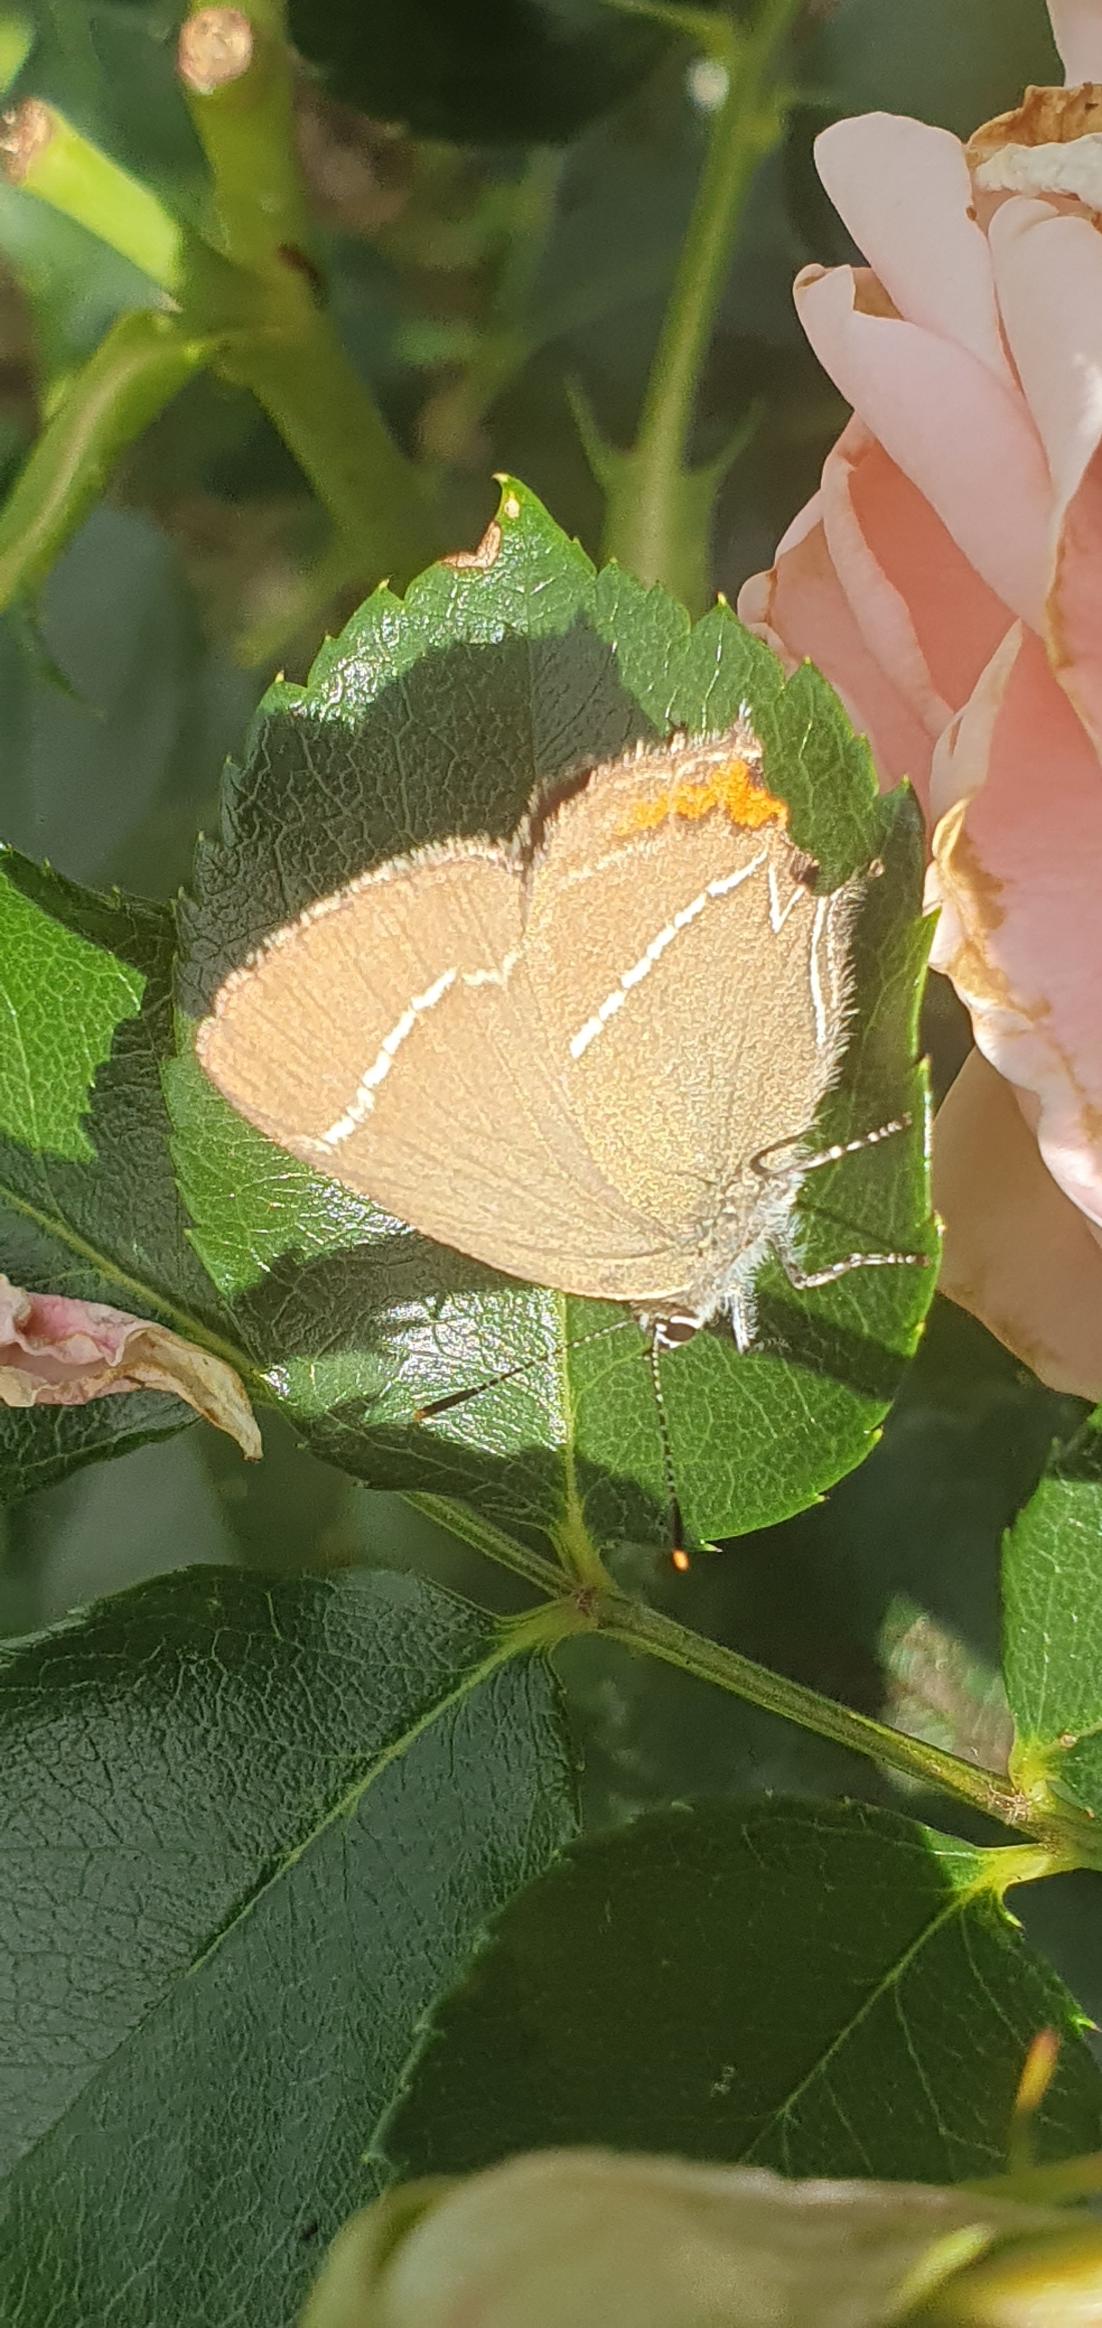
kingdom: Animalia
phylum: Arthropoda
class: Insecta
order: Lepidoptera
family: Lycaenidae
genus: Satyrium
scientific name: Satyrium w-album
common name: Det hvide W
